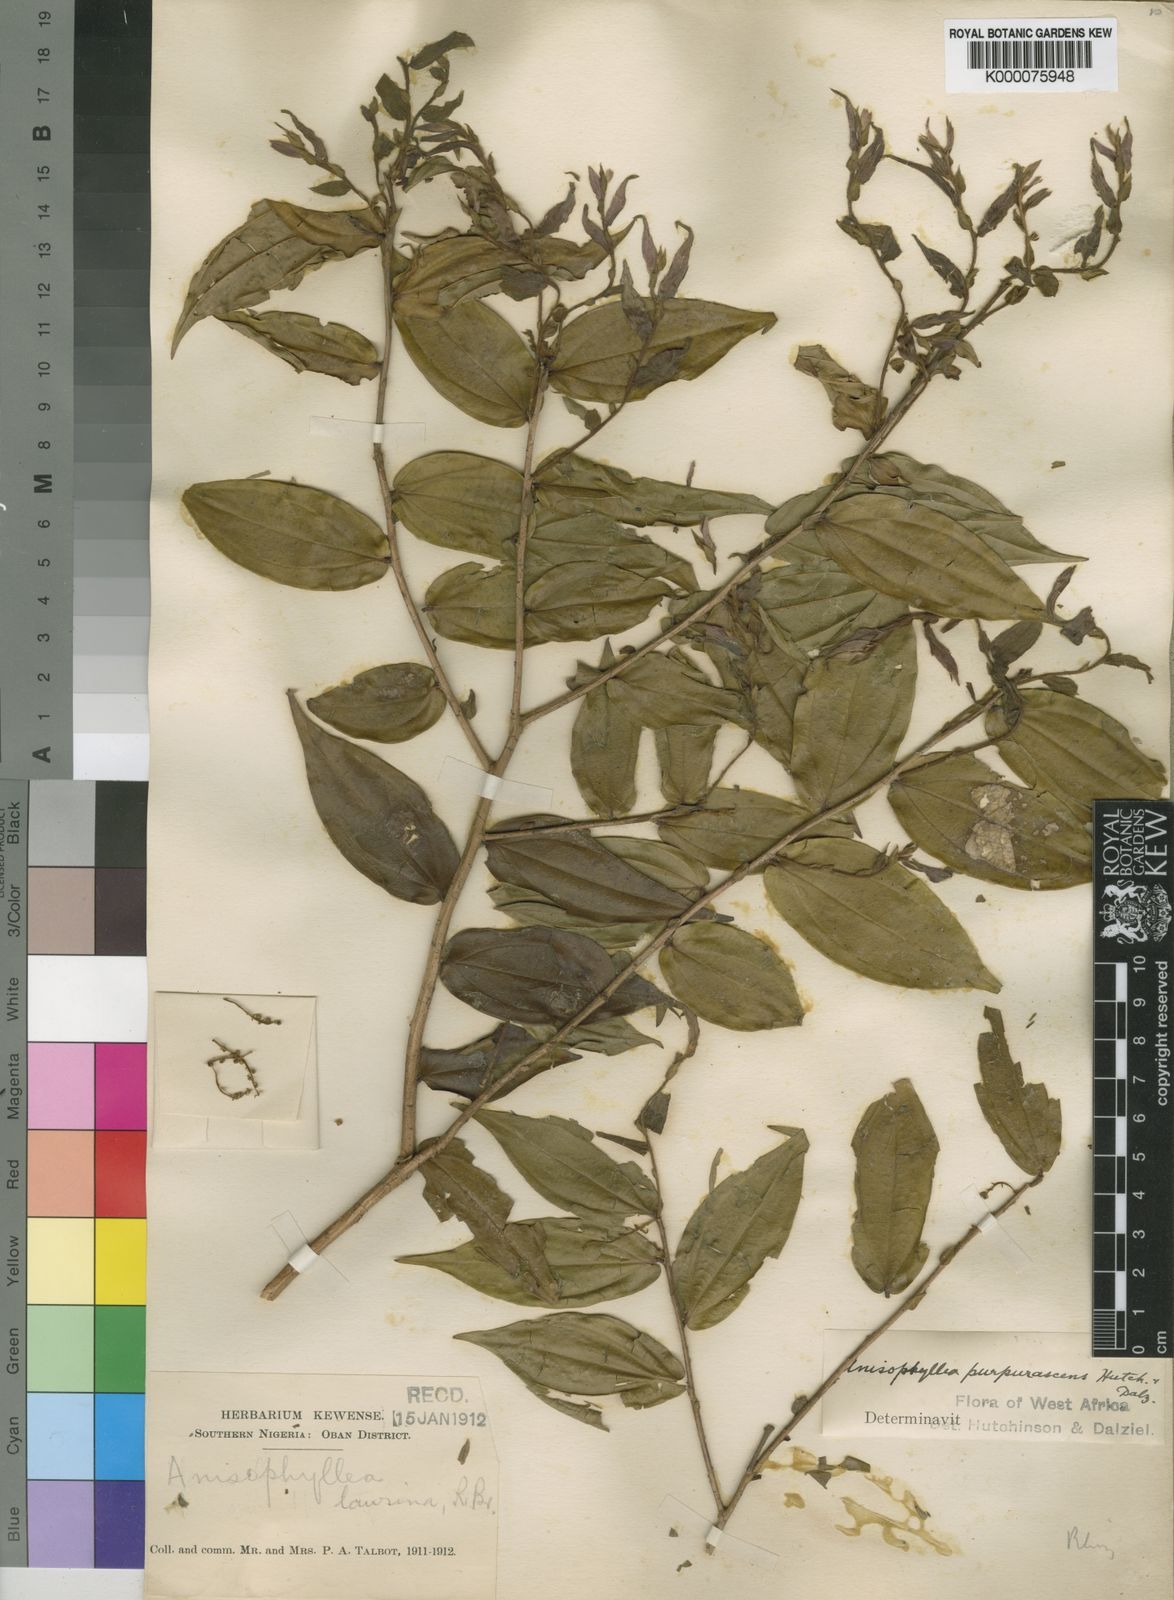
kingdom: Plantae
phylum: Tracheophyta
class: Magnoliopsida
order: Cucurbitales
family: Anisophylleaceae
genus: Anisophyllea
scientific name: Anisophyllea purpurascens
